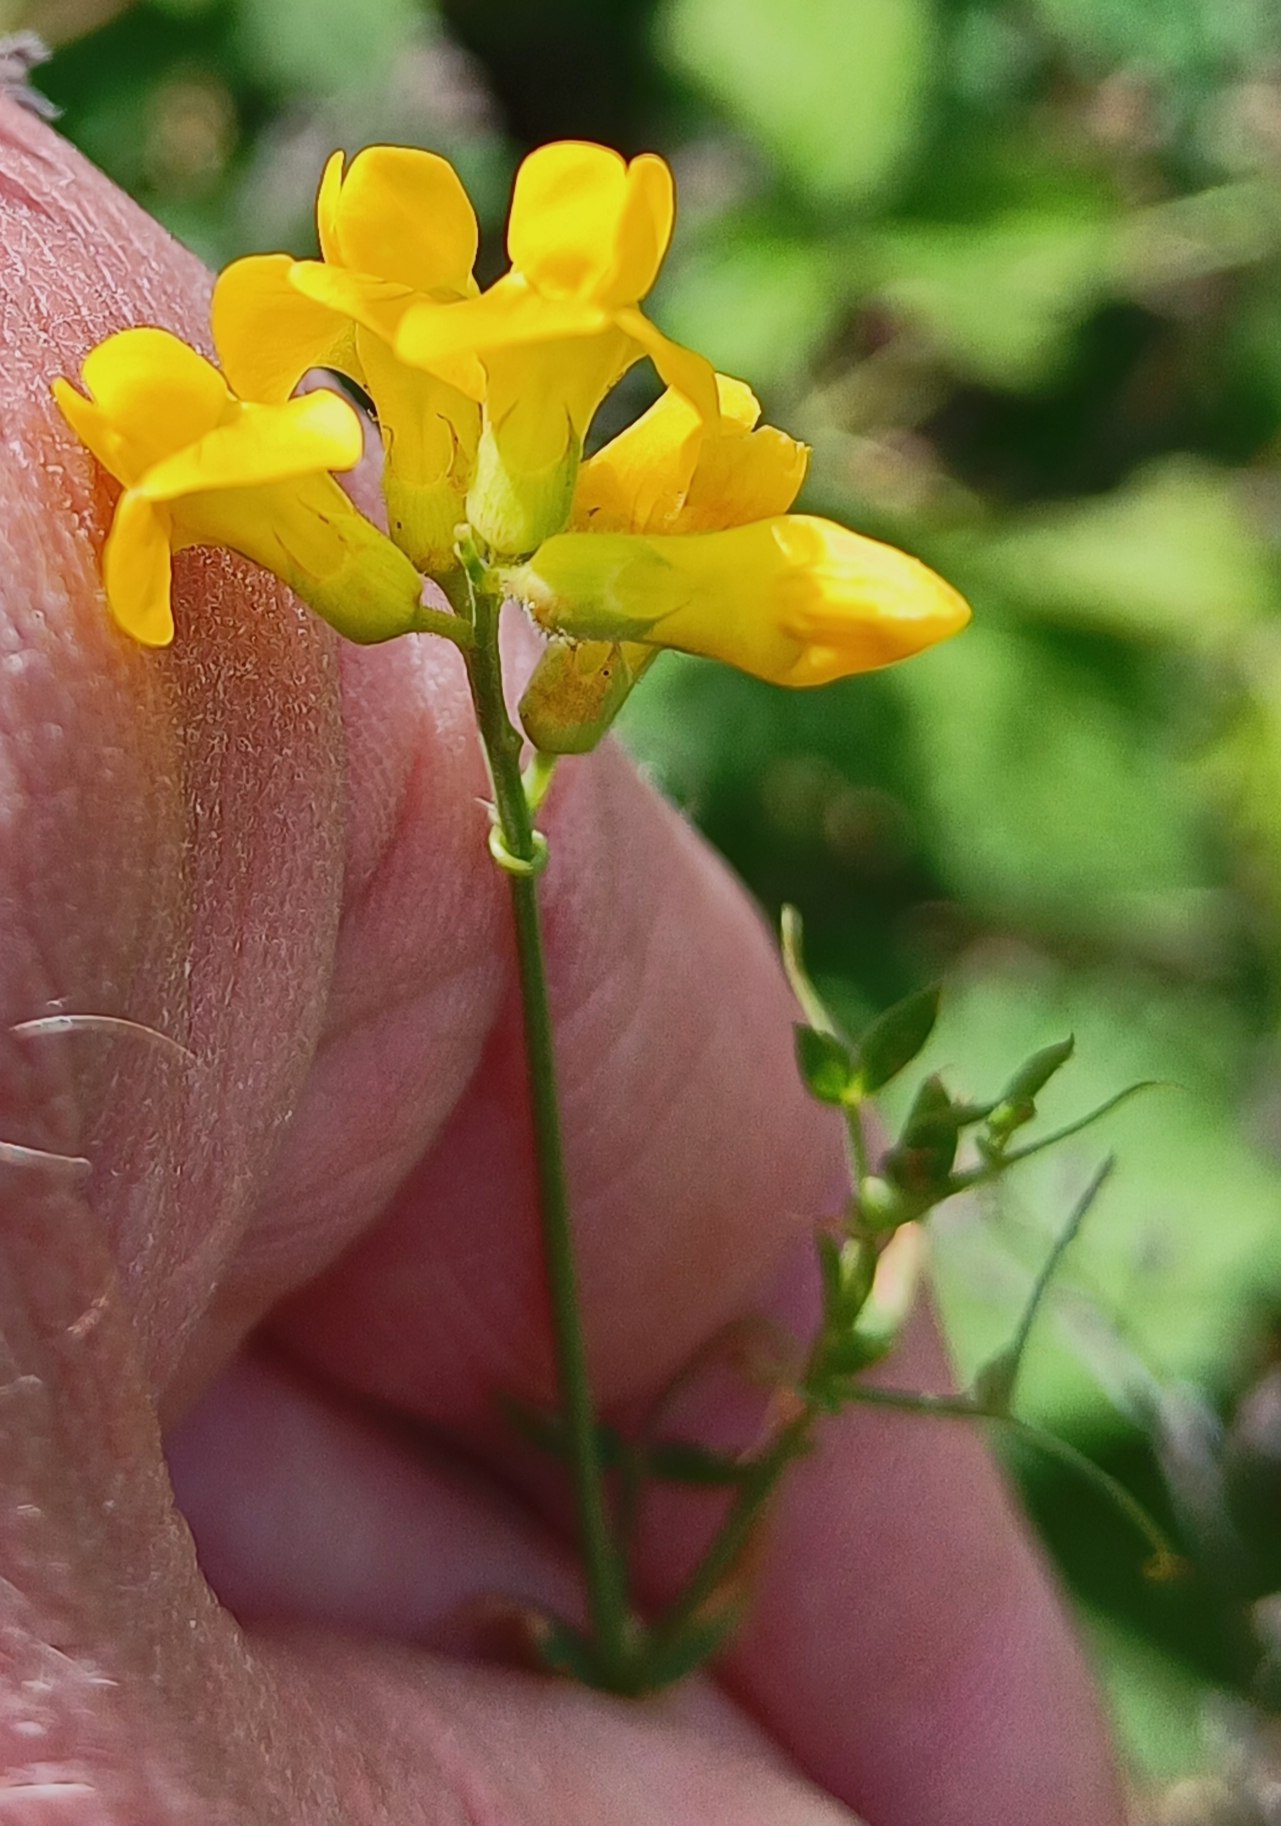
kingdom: Plantae
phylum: Tracheophyta
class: Magnoliopsida
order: Fabales
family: Fabaceae
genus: Lathyrus
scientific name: Lathyrus pratensis
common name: Gul fladbælg
